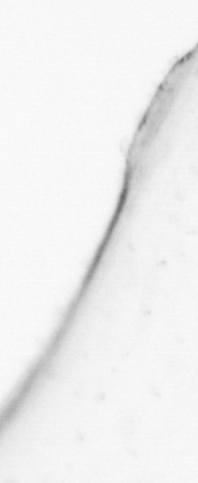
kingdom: Animalia
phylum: Chaetognatha
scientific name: Chaetognatha
